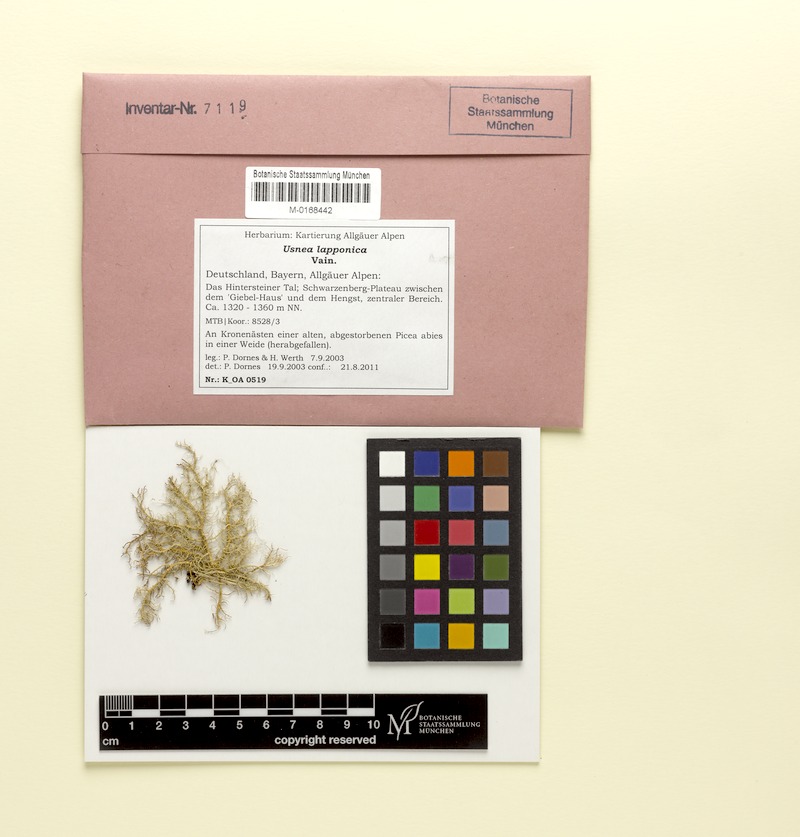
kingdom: Fungi
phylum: Ascomycota
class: Lecanoromycetes
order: Lecanorales
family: Parmeliaceae
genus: Usnea
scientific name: Usnea lapponica
